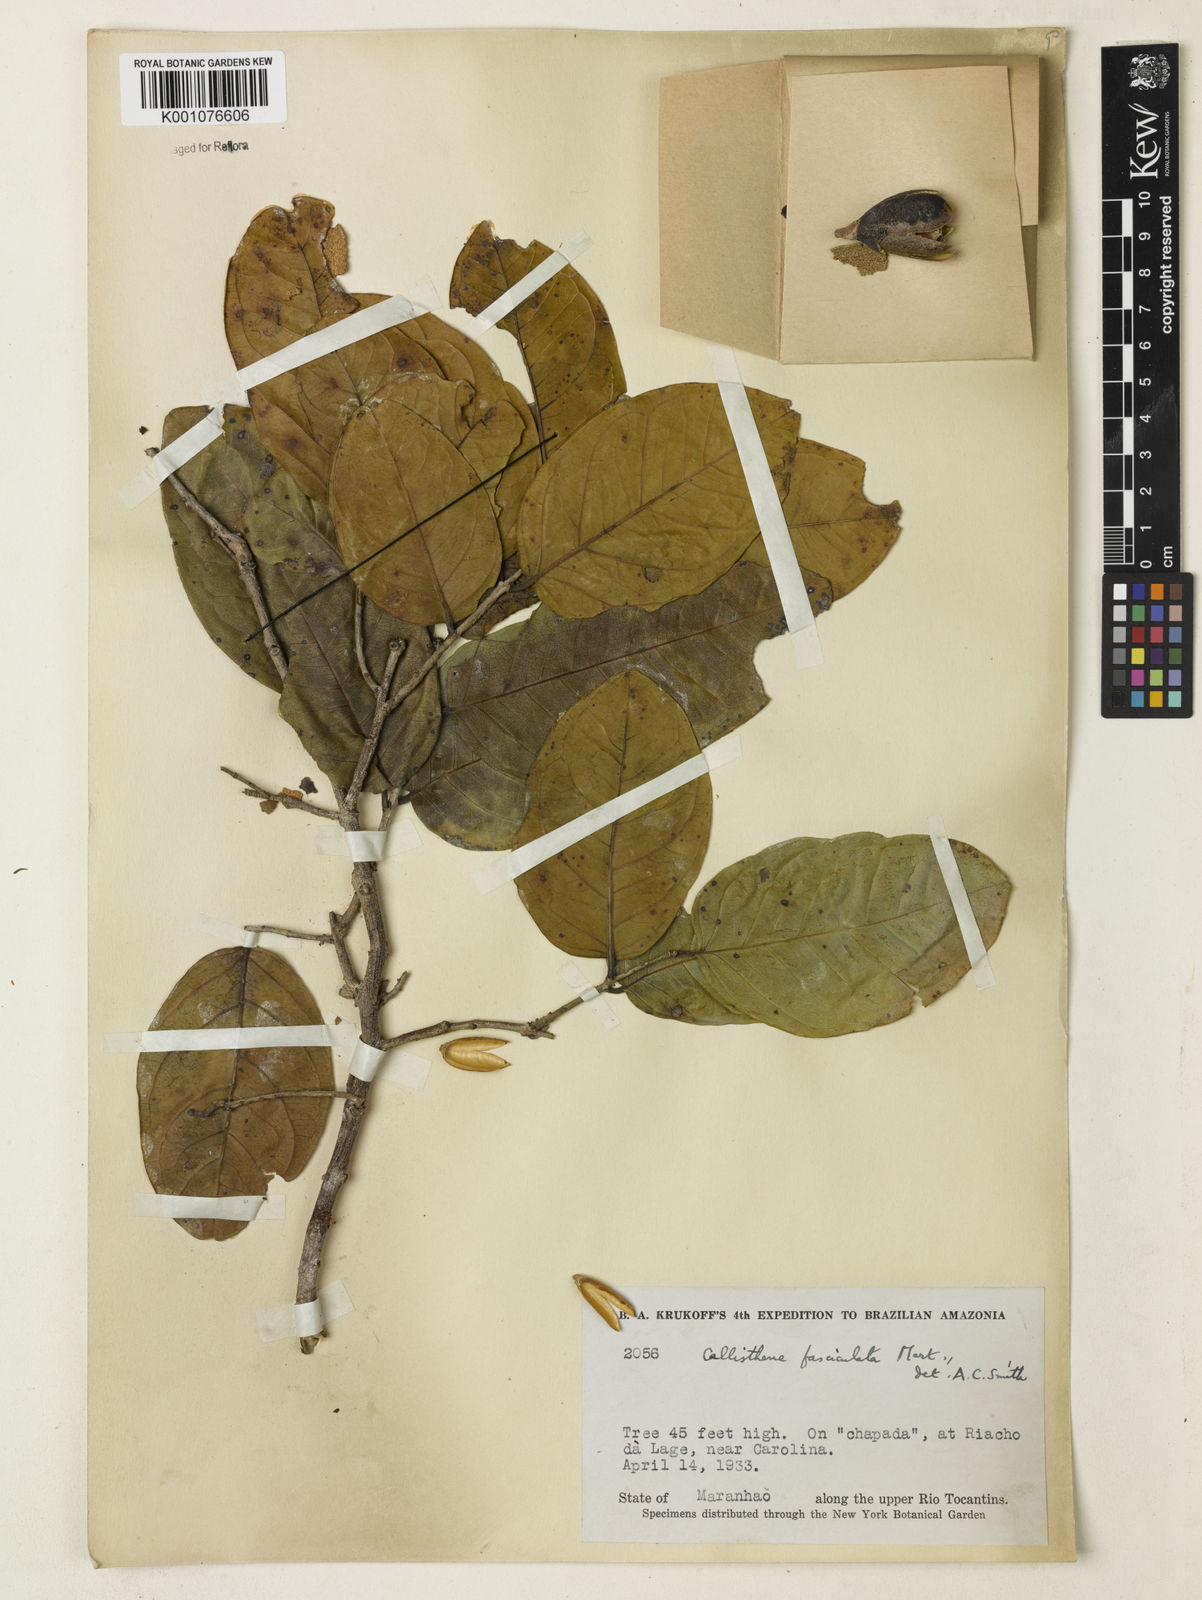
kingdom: Plantae
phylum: Tracheophyta
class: Magnoliopsida
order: Myrtales
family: Vochysiaceae
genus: Callisthene
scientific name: Callisthene fasciculata
